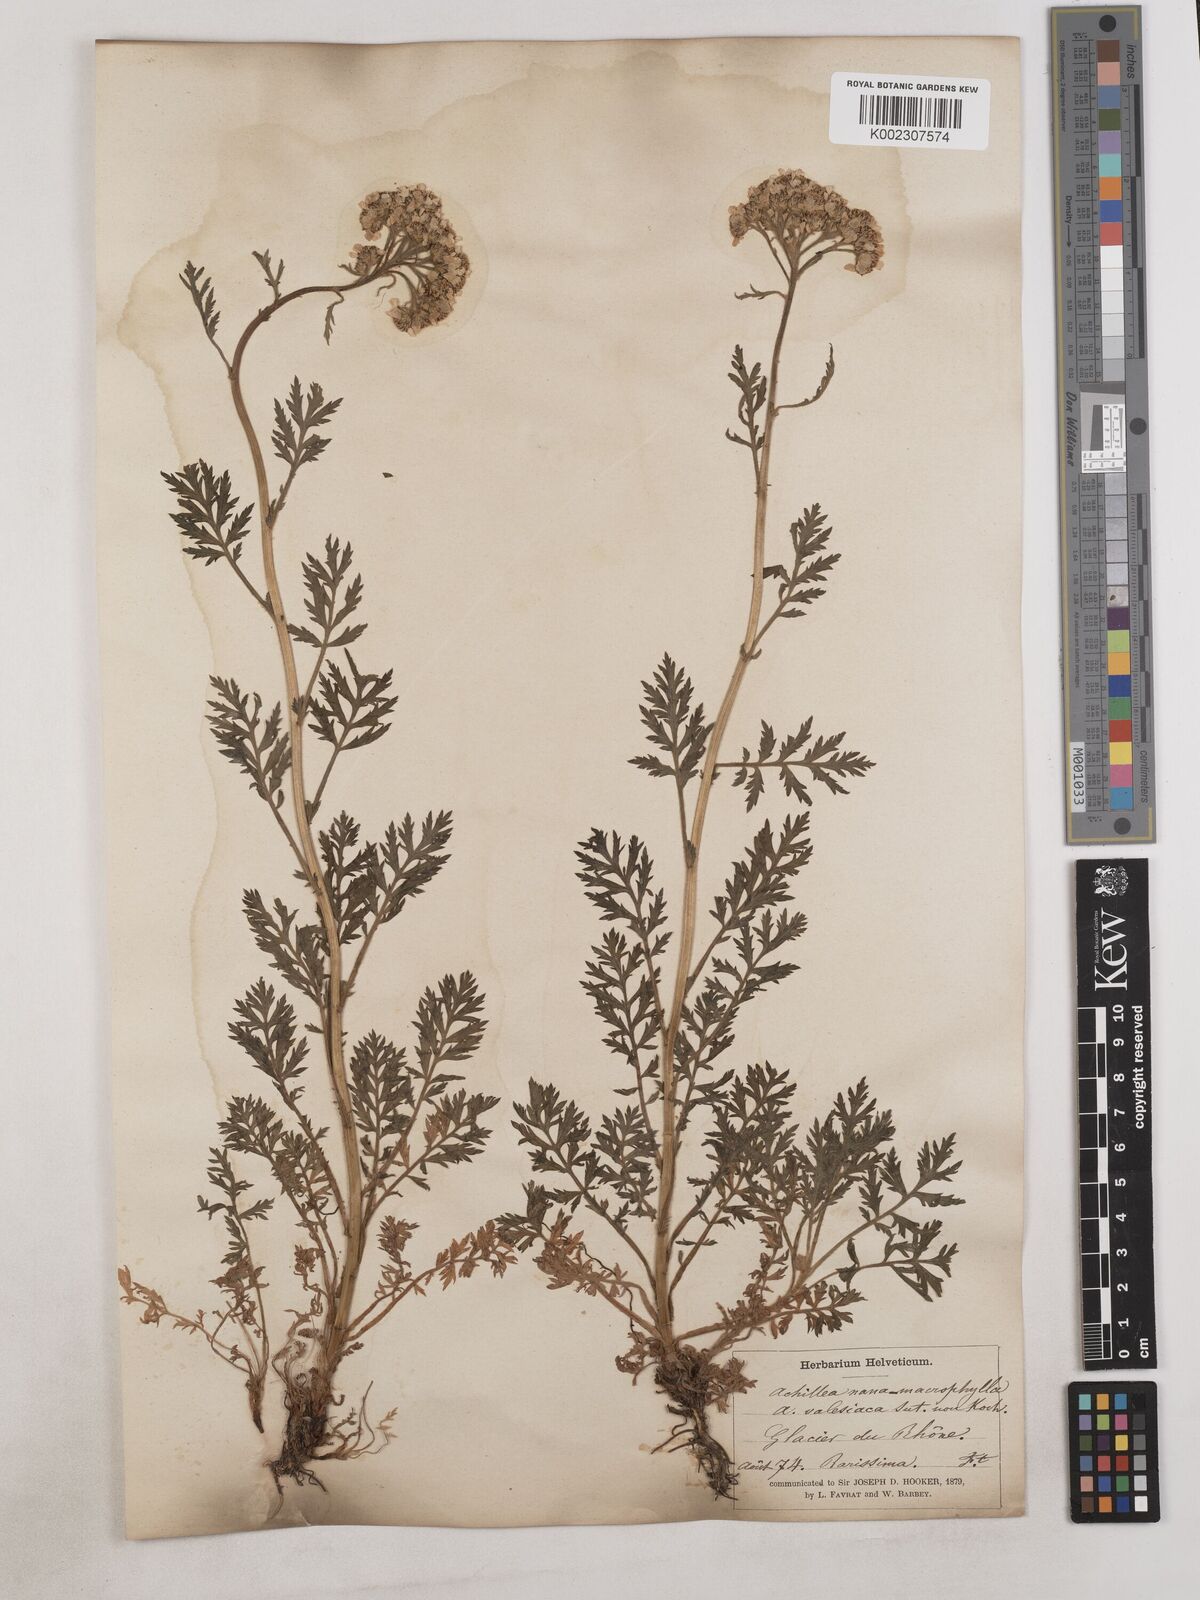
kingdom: Plantae
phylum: Tracheophyta
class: Magnoliopsida
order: Asterales
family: Asteraceae
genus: Achillea
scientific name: Achillea valesiaca
